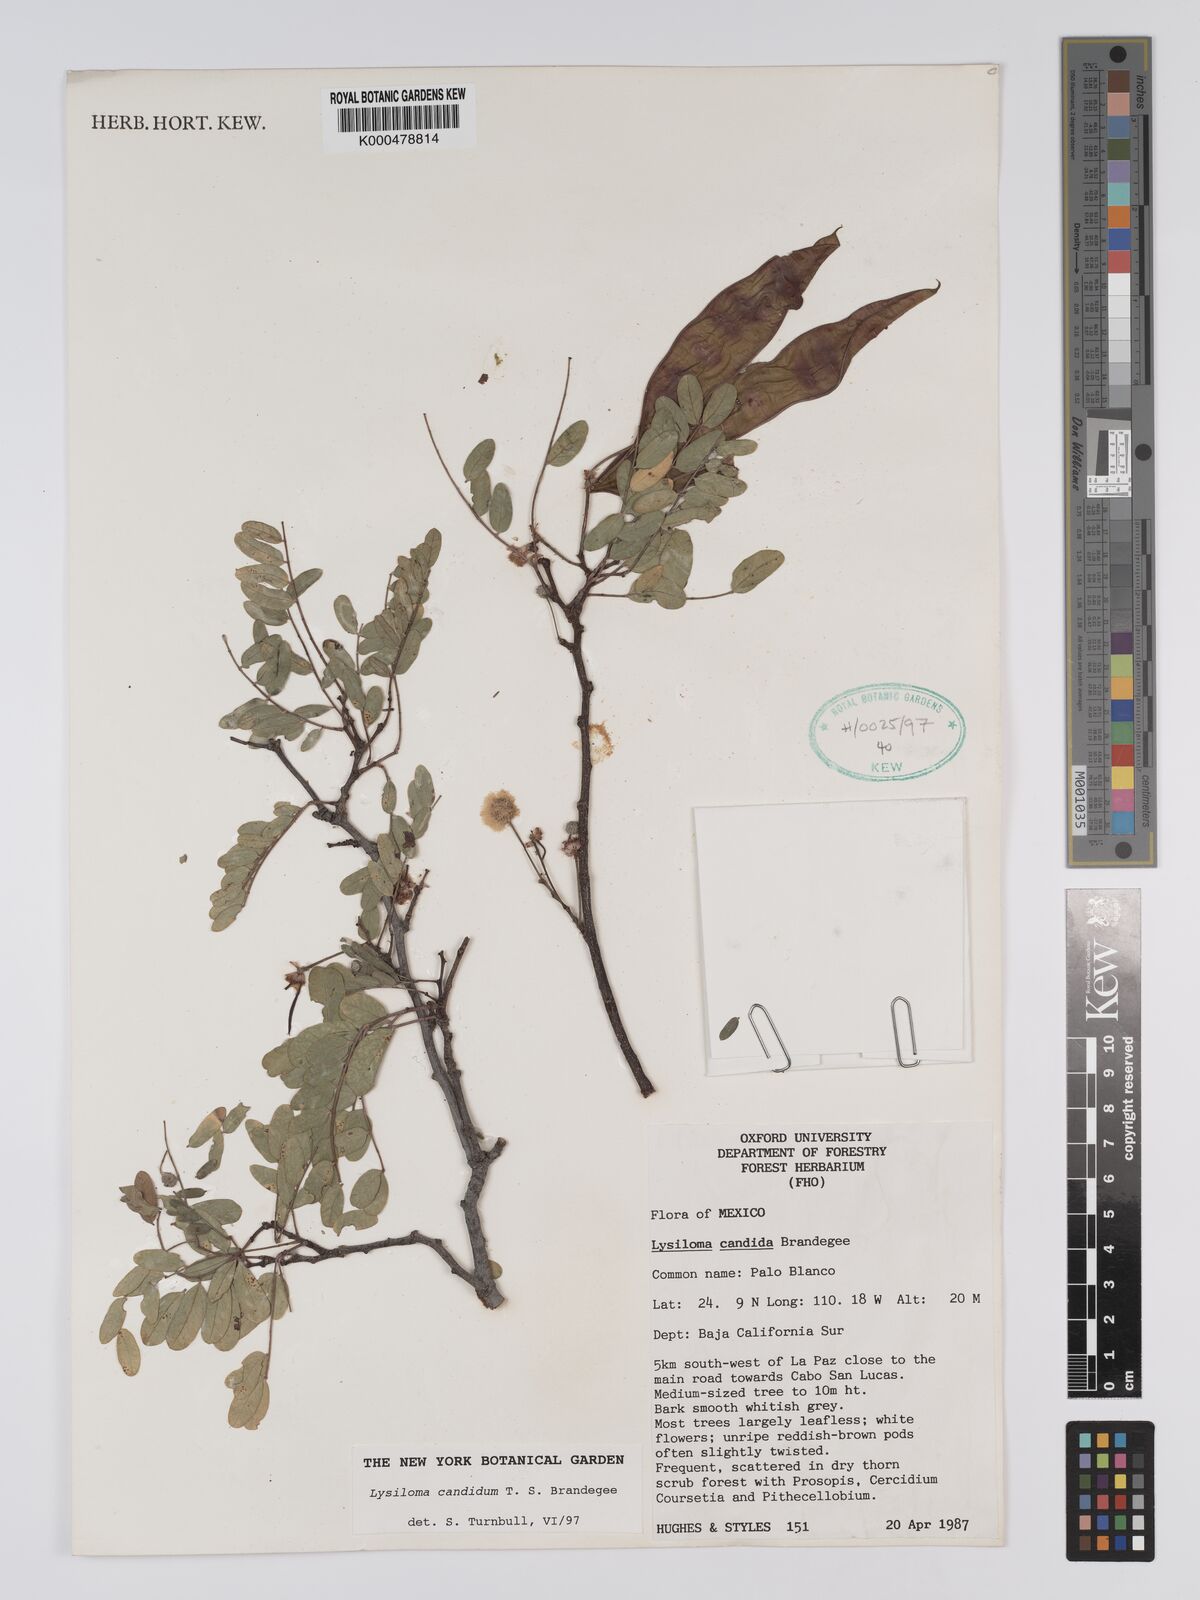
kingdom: Plantae
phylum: Tracheophyta
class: Magnoliopsida
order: Fabales
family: Fabaceae
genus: Lysiloma
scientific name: Lysiloma candidum
